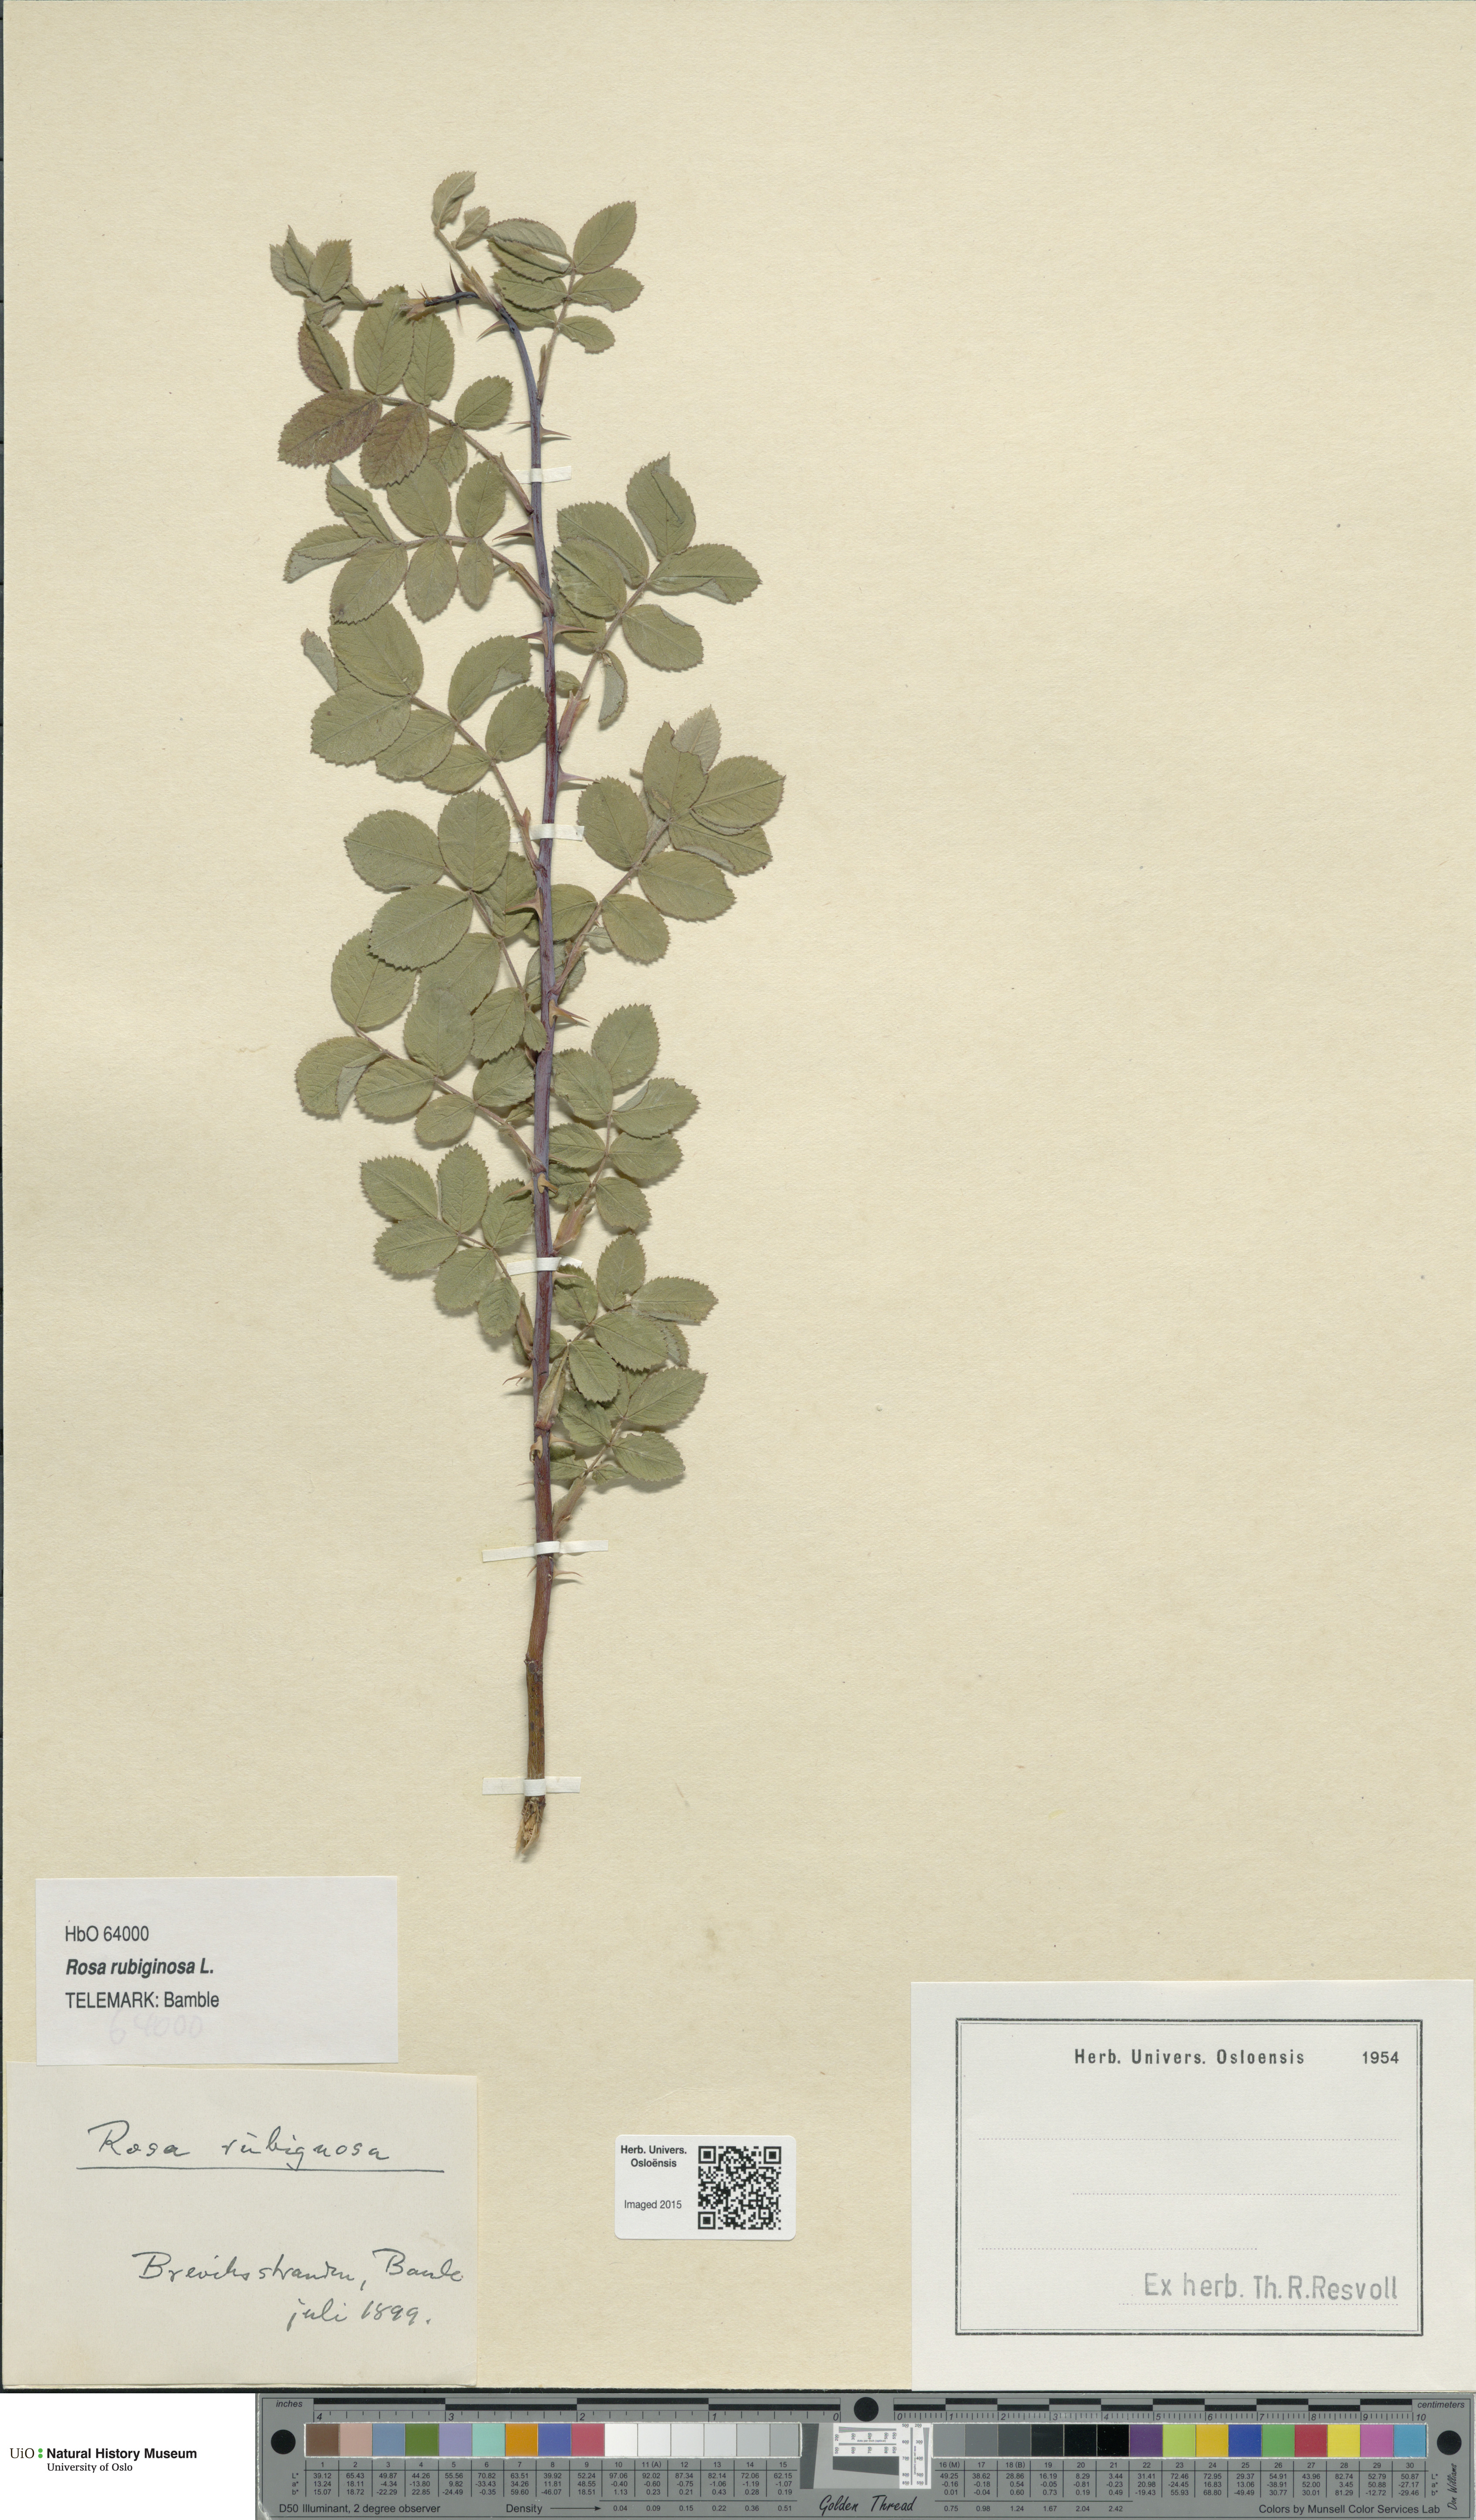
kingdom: Plantae
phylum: Tracheophyta
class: Magnoliopsida
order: Rosales
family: Rosaceae
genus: Rosa
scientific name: Rosa rubiginosa
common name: Sweet-briar
